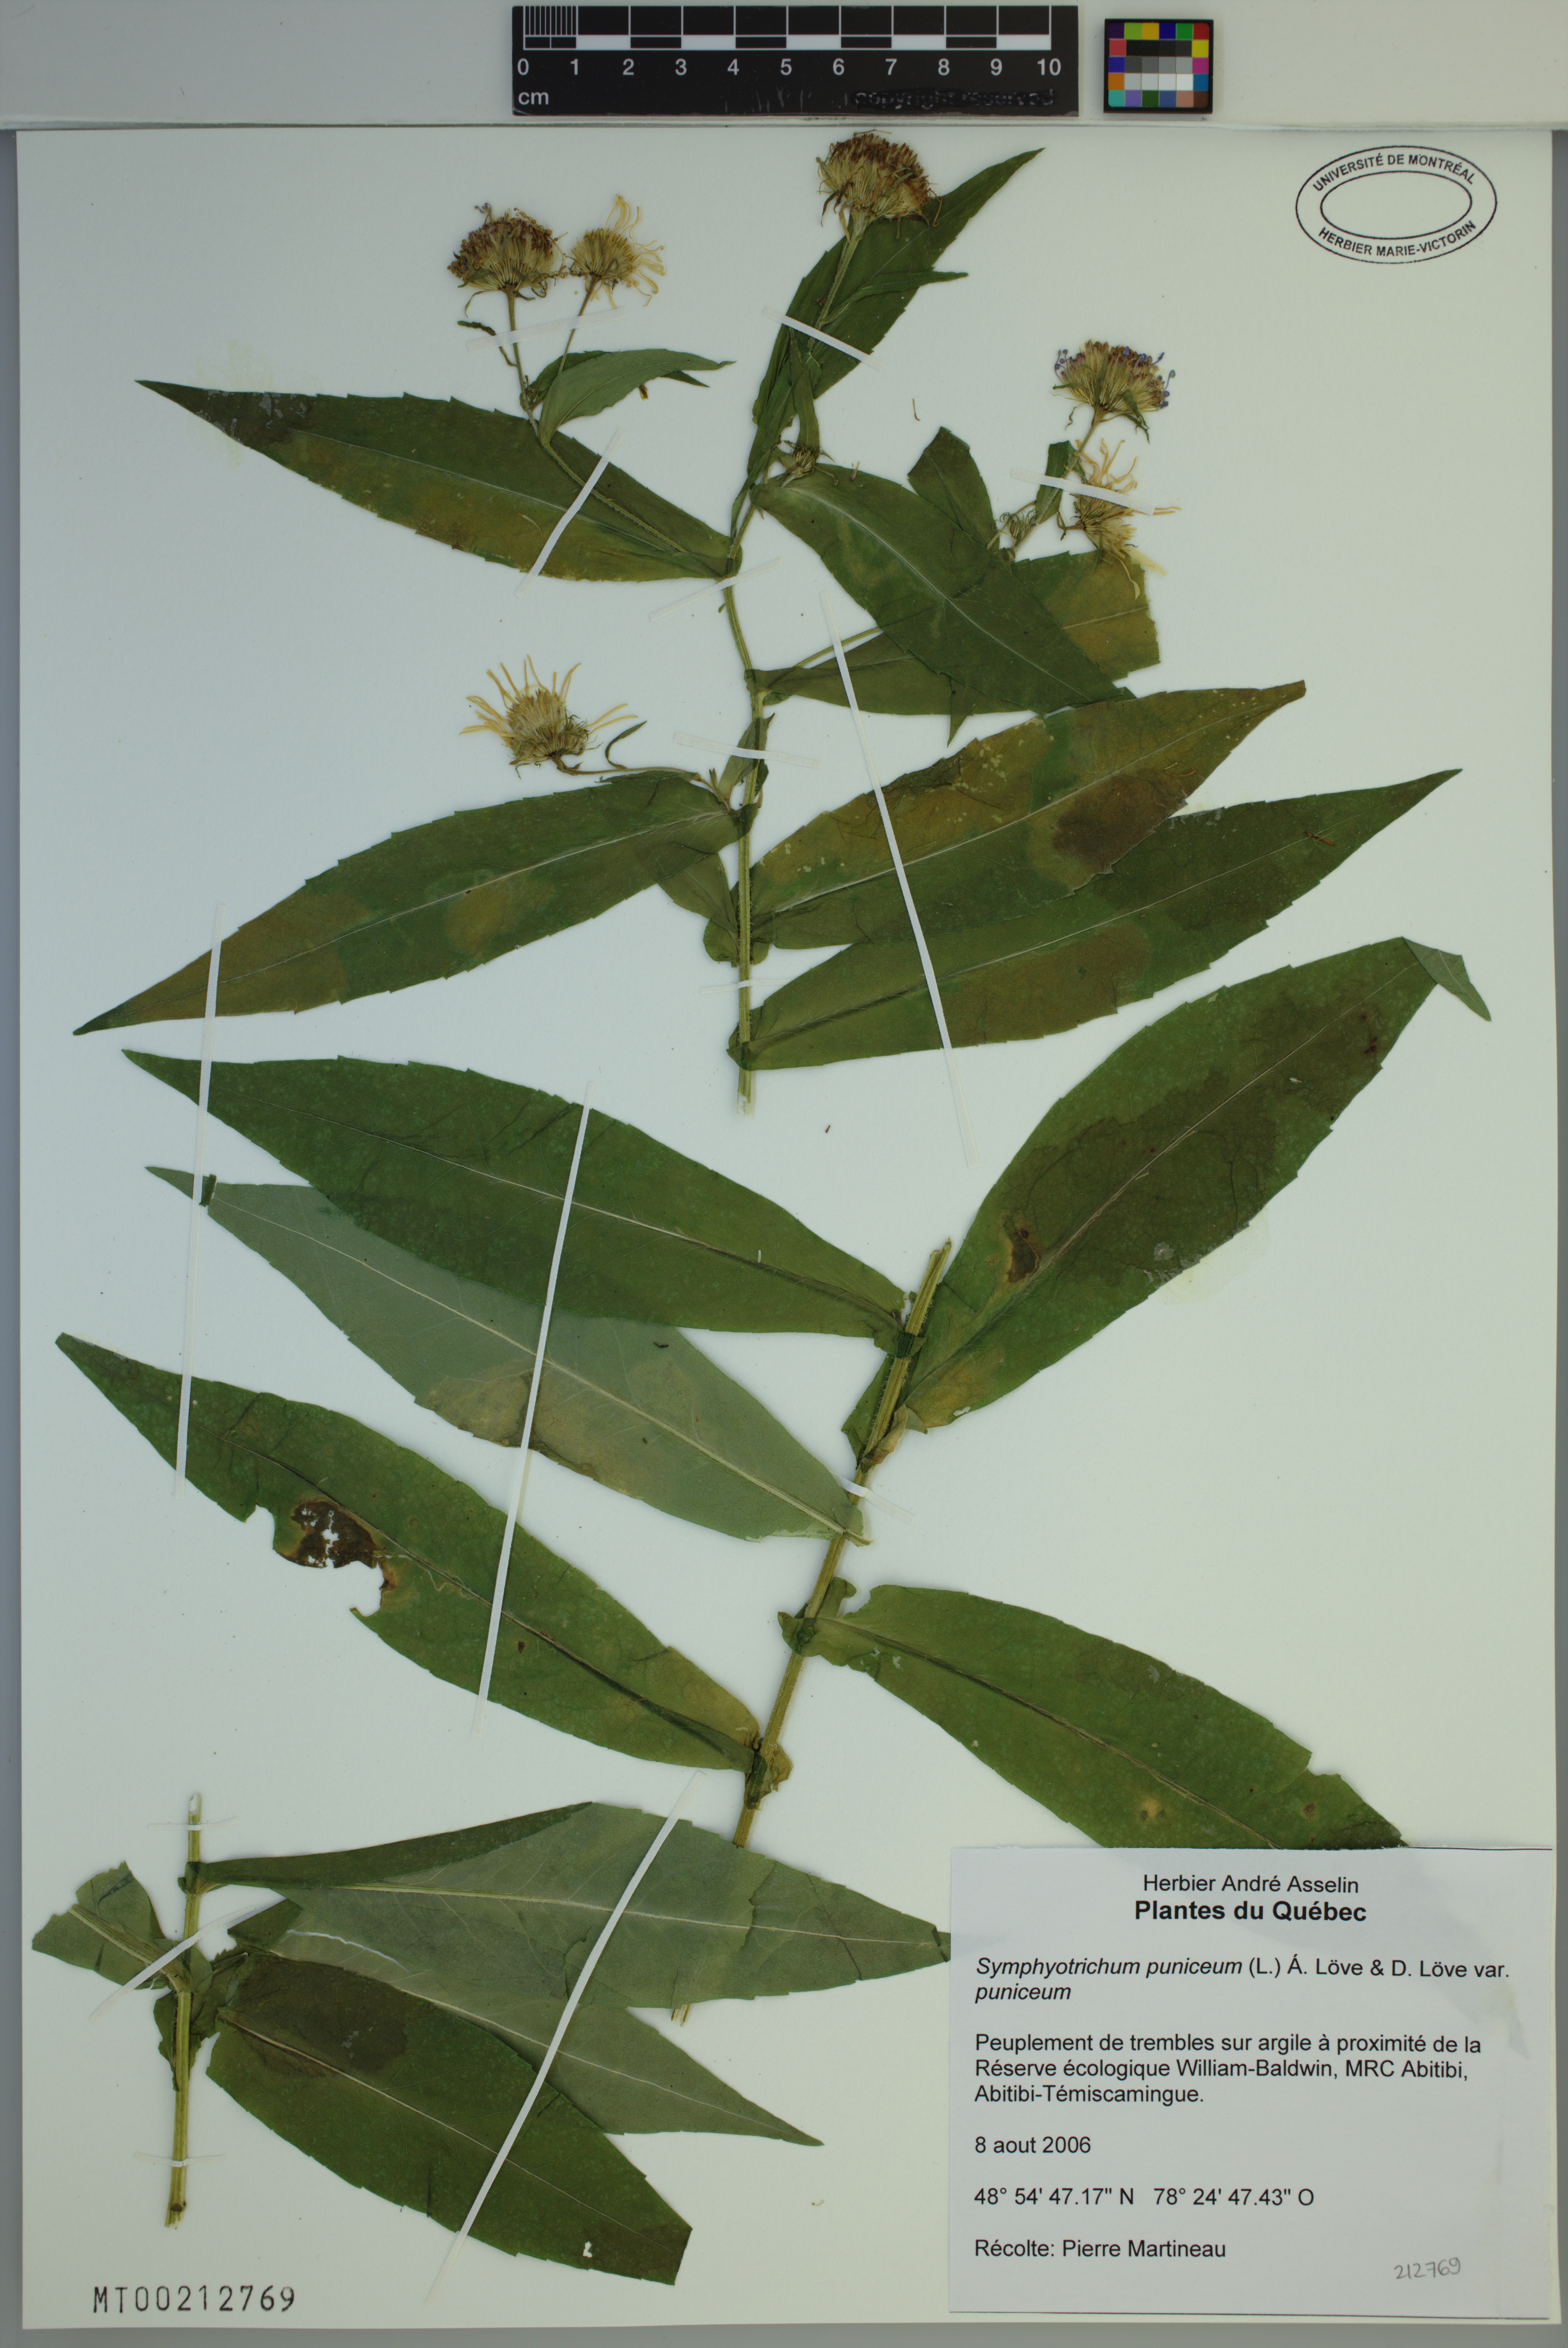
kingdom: Plantae
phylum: Tracheophyta
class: Magnoliopsida
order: Asterales
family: Asteraceae
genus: Symphyotrichum
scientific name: Symphyotrichum puniceum
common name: Bog aster
